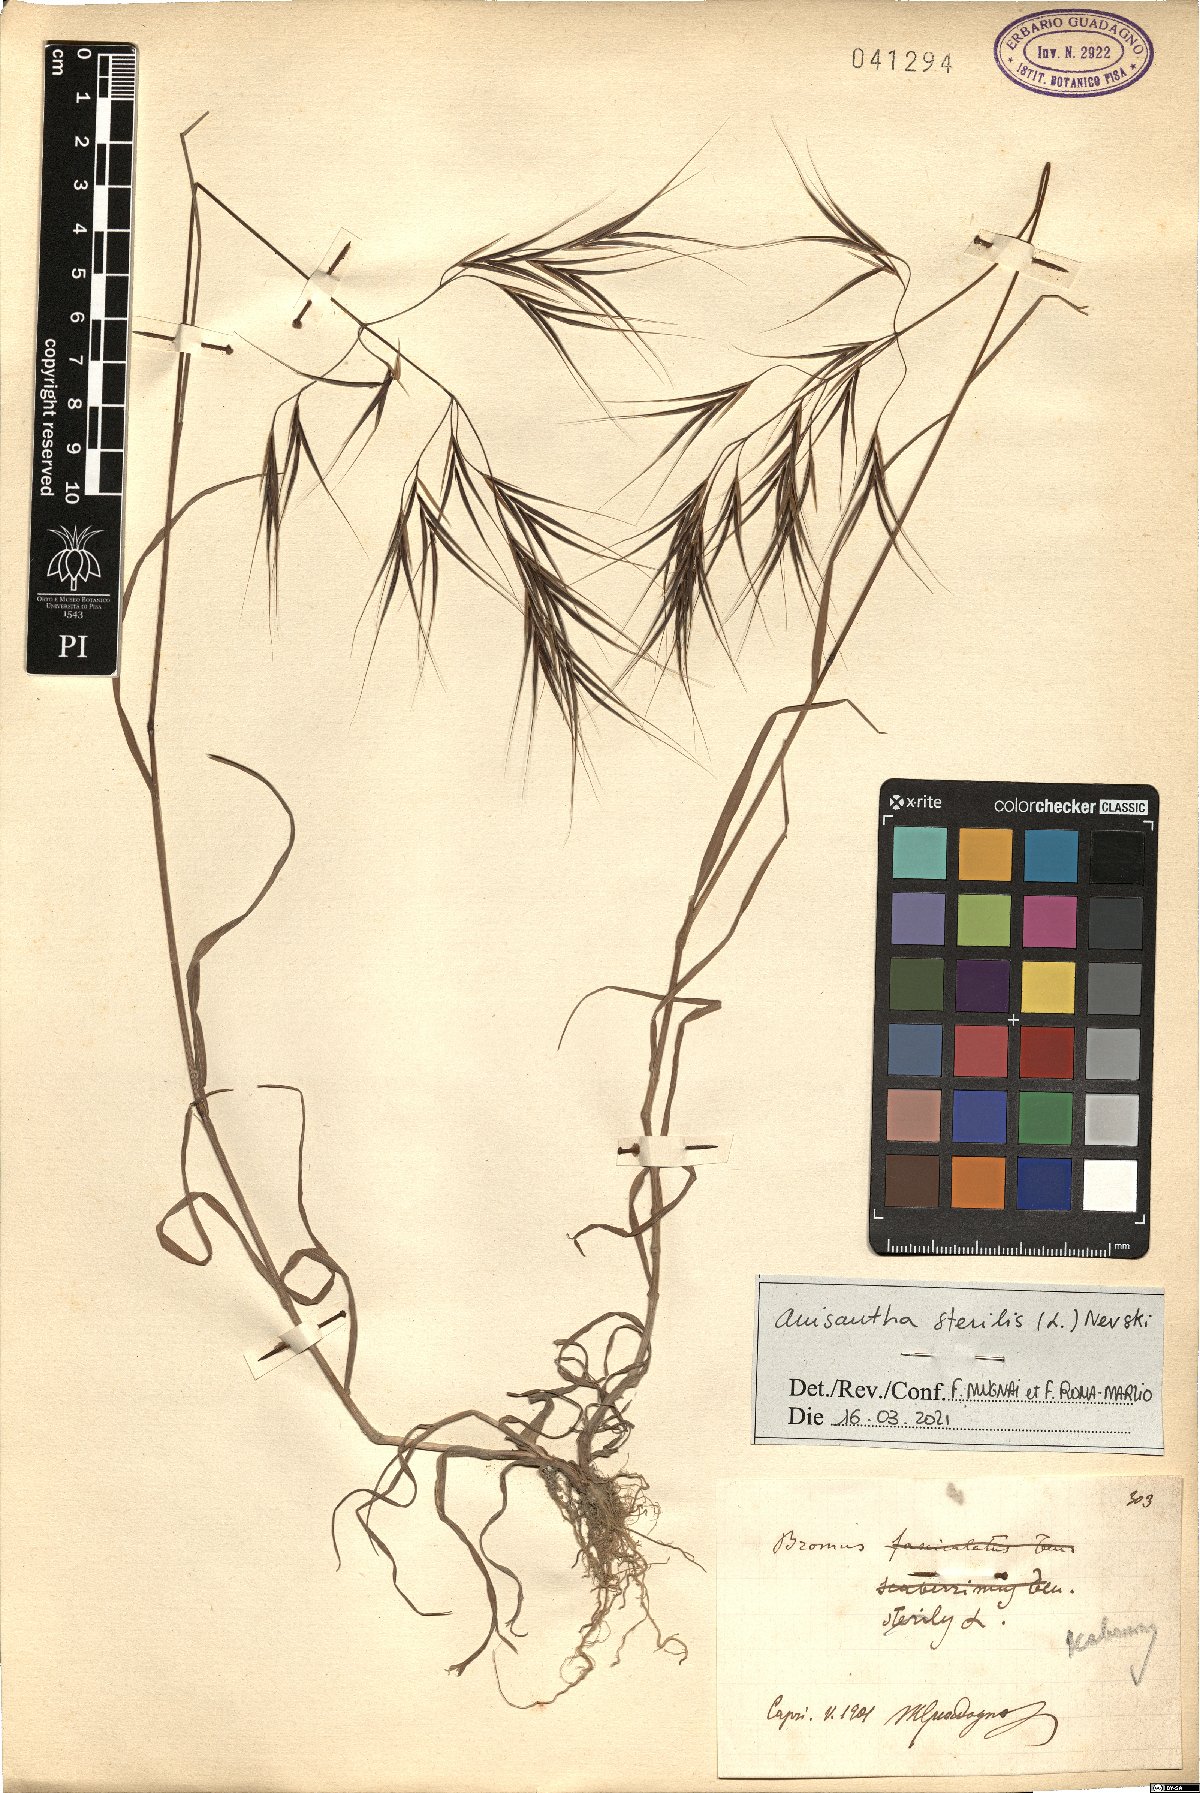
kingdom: Plantae
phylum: Tracheophyta
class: Liliopsida
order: Poales
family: Poaceae
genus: Bromus
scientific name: Bromus sterilis
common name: Poverty brome
